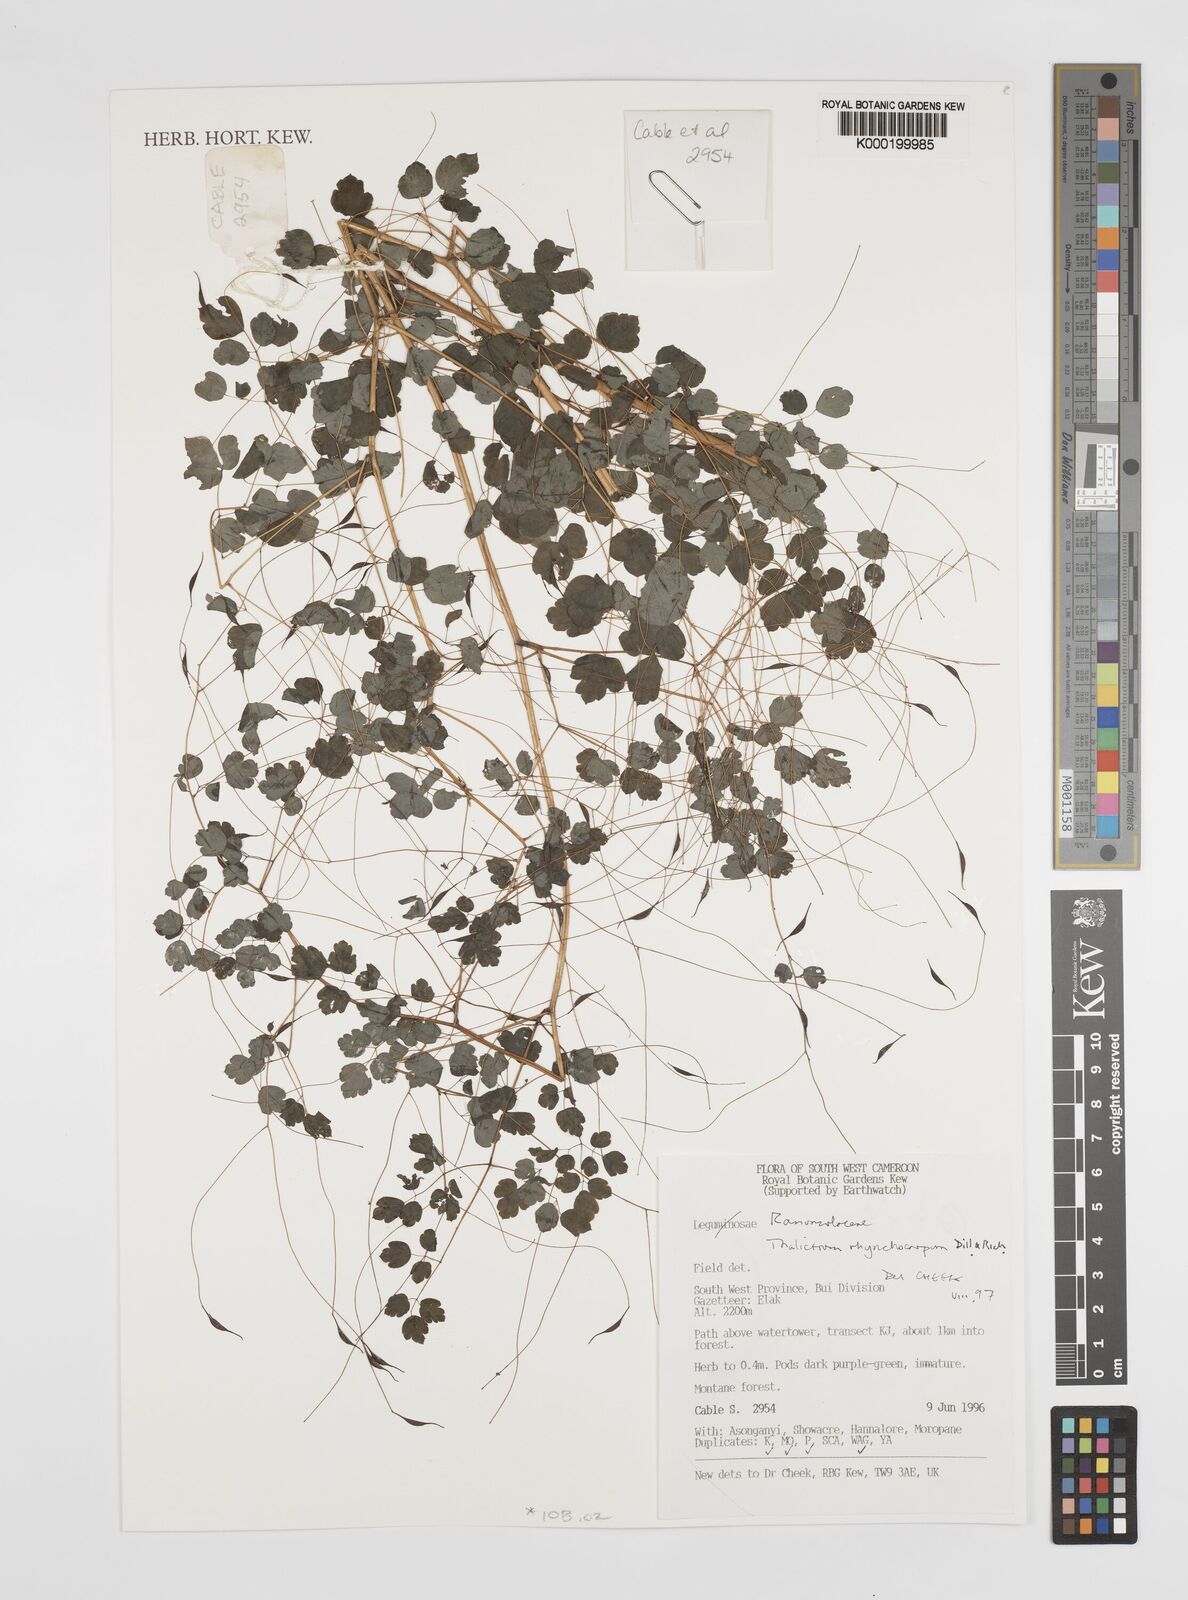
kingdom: Plantae
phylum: Tracheophyta
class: Magnoliopsida
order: Ranunculales
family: Ranunculaceae
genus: Thalictrum
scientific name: Thalictrum rhynchocarpum
